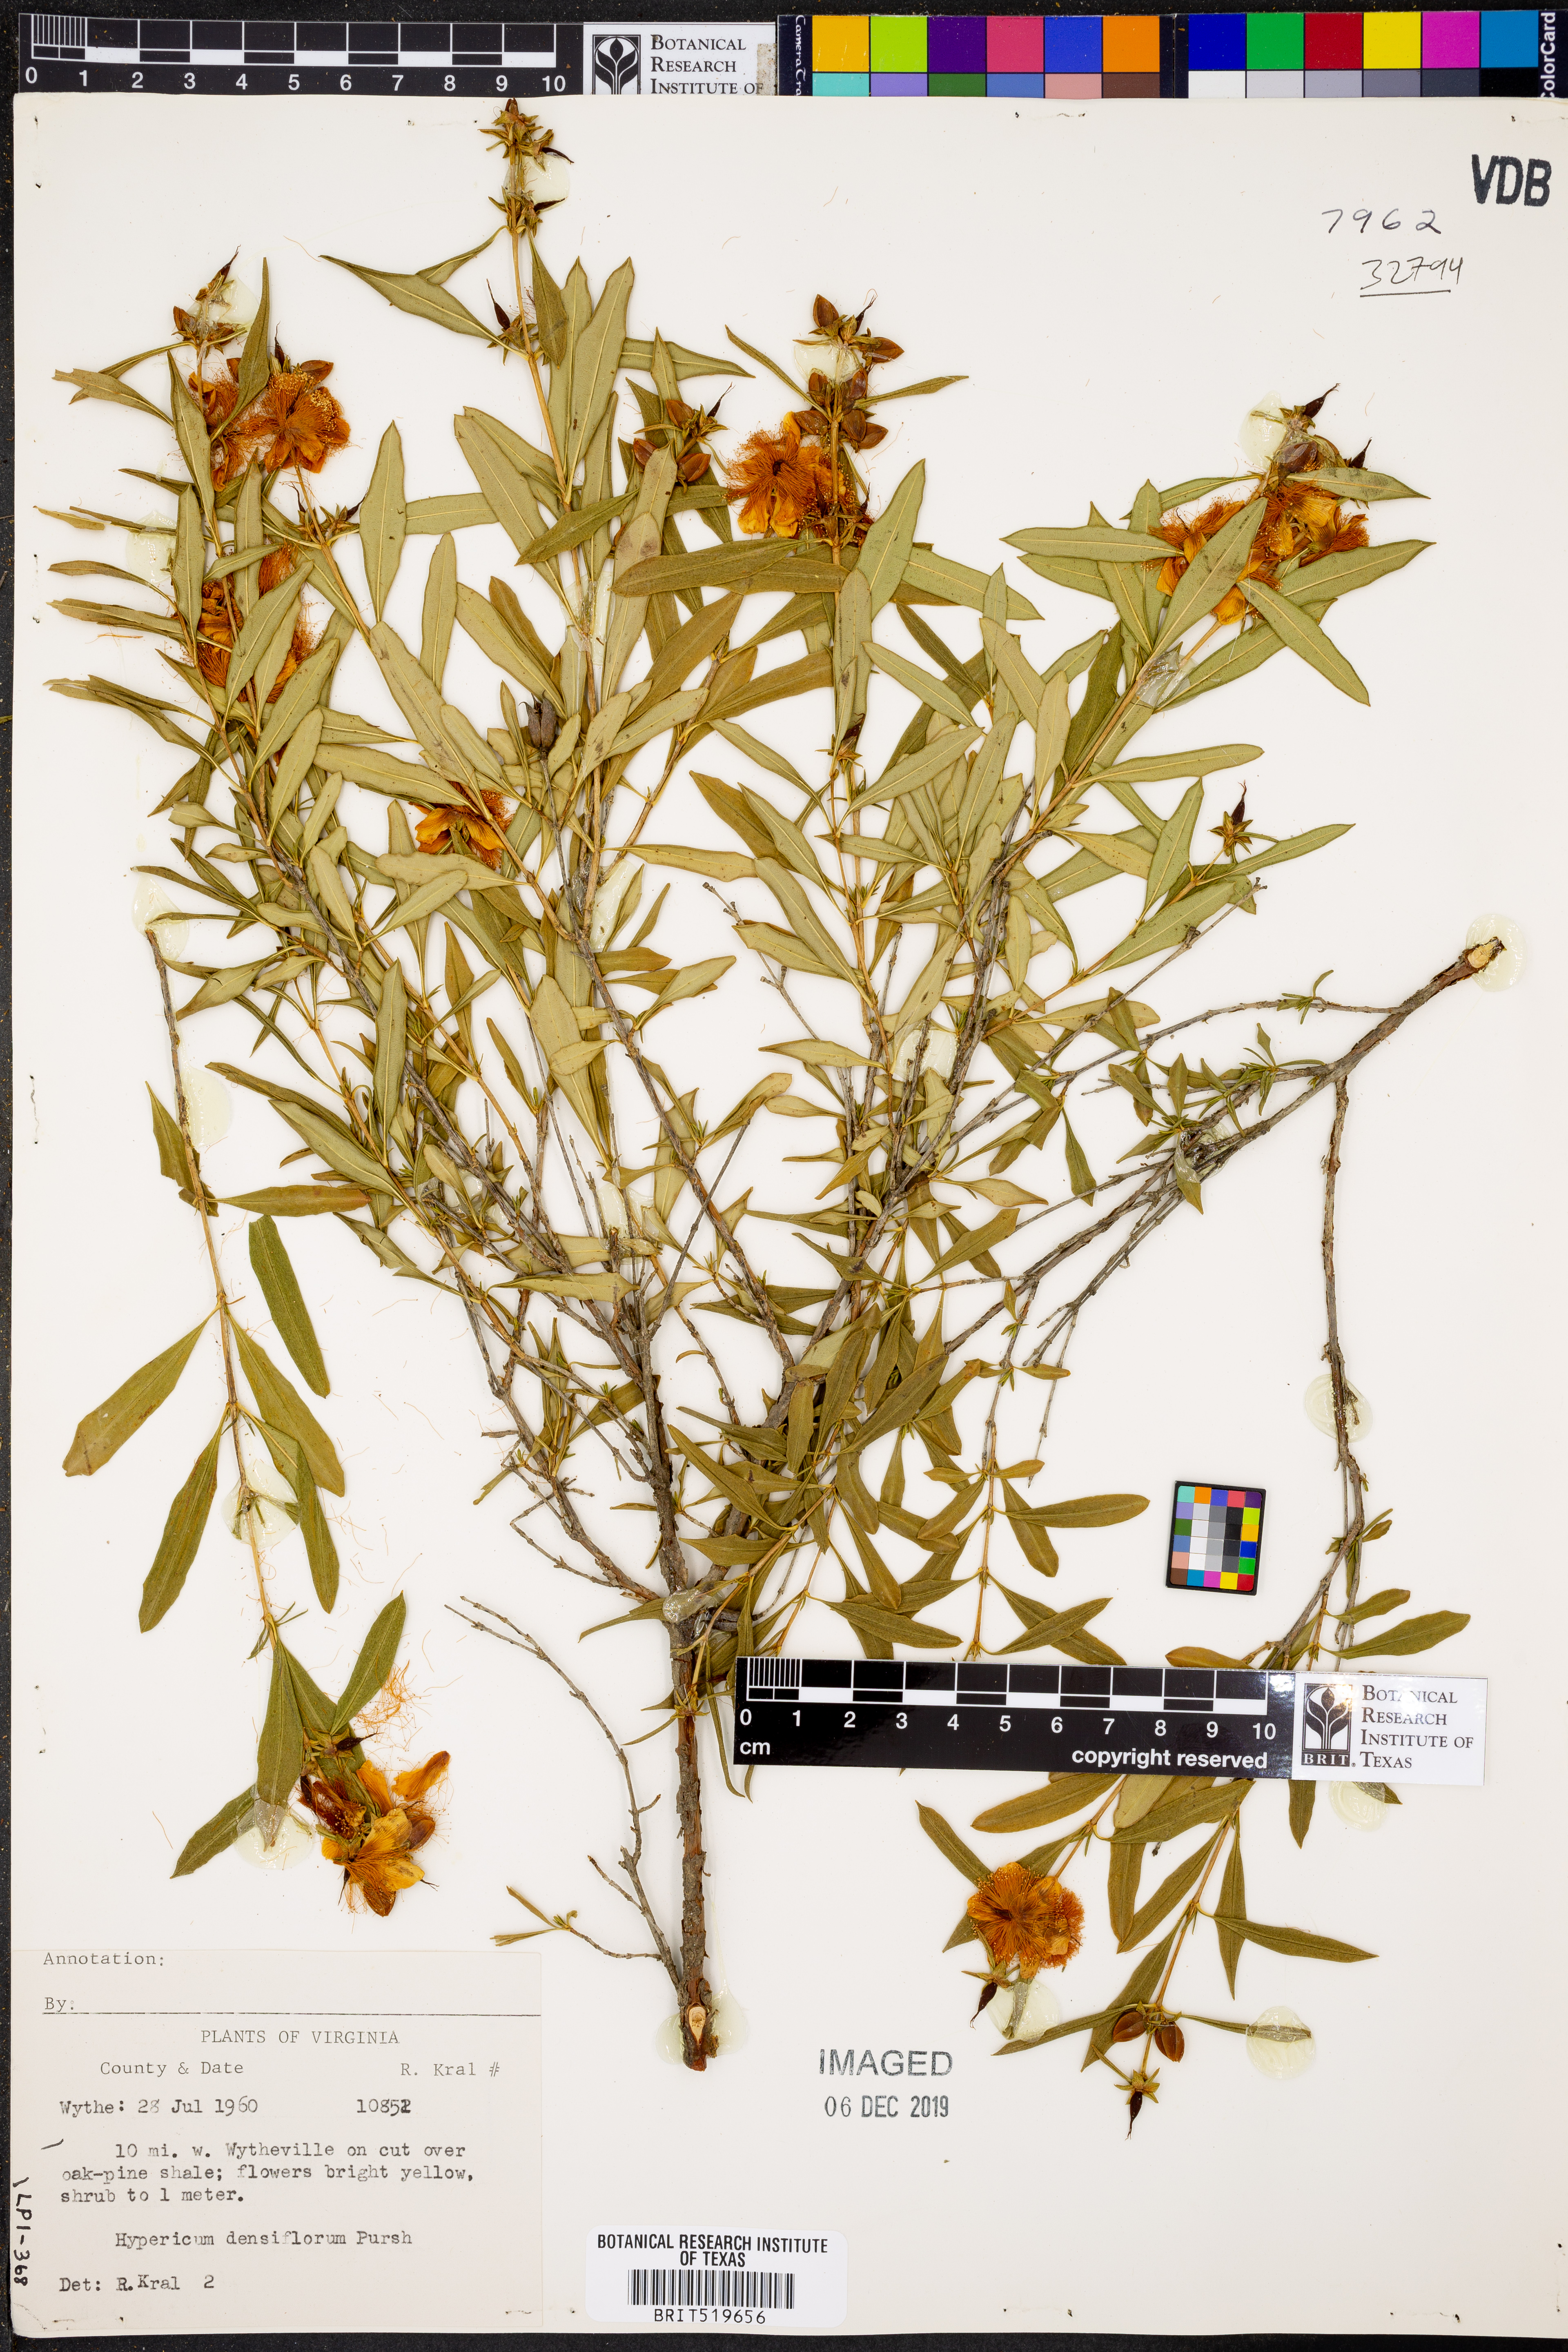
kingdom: Plantae
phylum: Tracheophyta
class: Magnoliopsida
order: Malpighiales
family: Hypericaceae
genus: Hypericum
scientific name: Hypericum densiflorum
